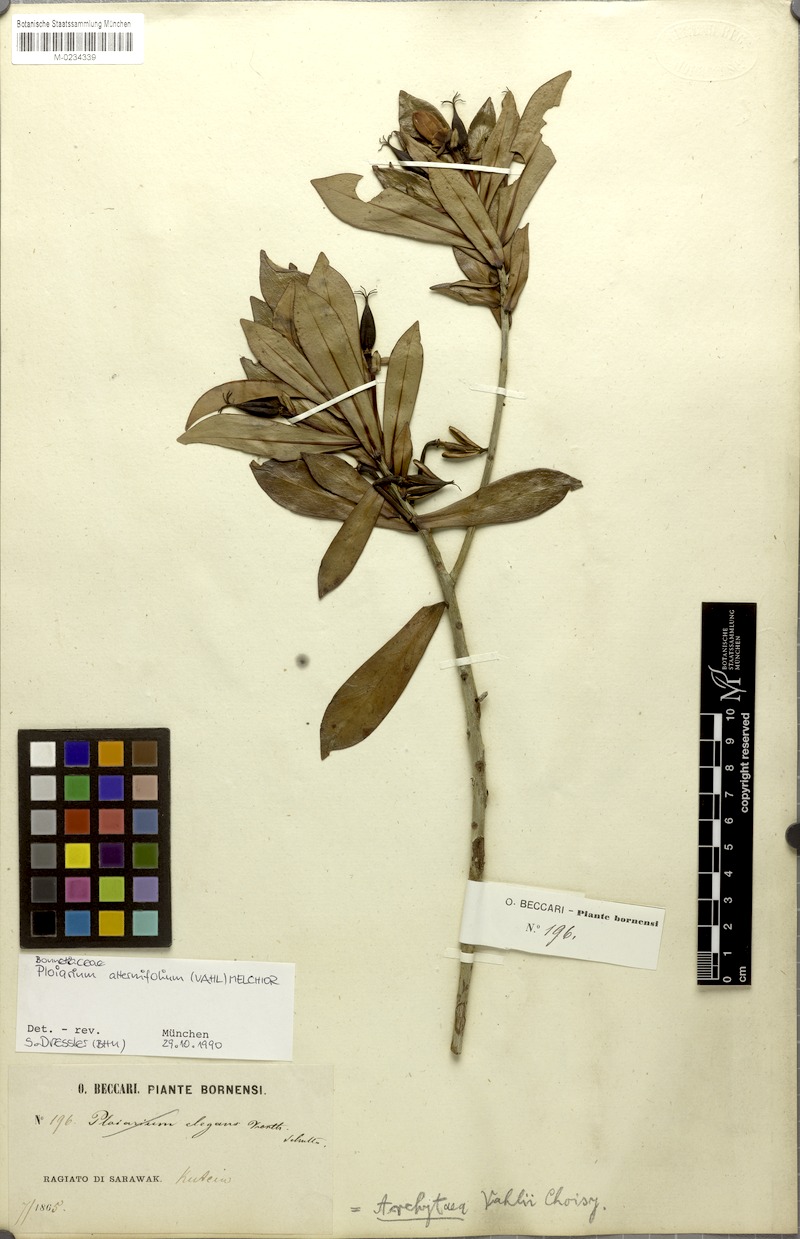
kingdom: Plantae
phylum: Tracheophyta
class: Magnoliopsida
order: Malpighiales
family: Bonnetiaceae
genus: Ploiarium
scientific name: Ploiarium alternifolium
